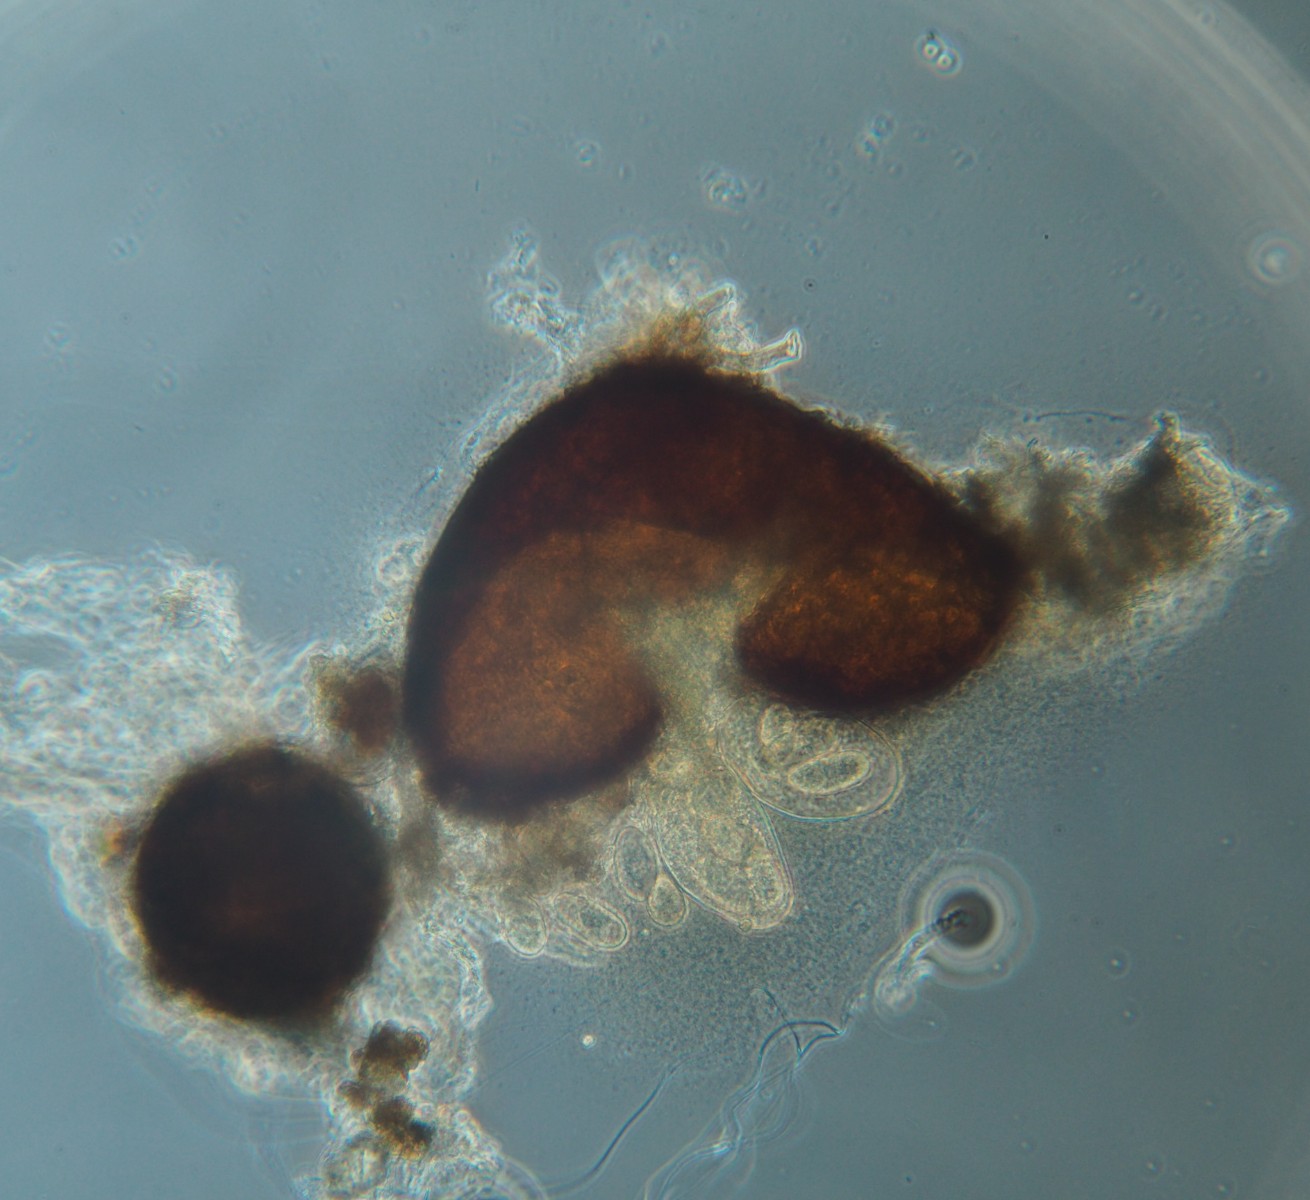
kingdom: Fungi
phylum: Ascomycota
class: Leotiomycetes
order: Helotiales
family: Erysiphaceae
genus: Erysiphe
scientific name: Erysiphe polygoni
